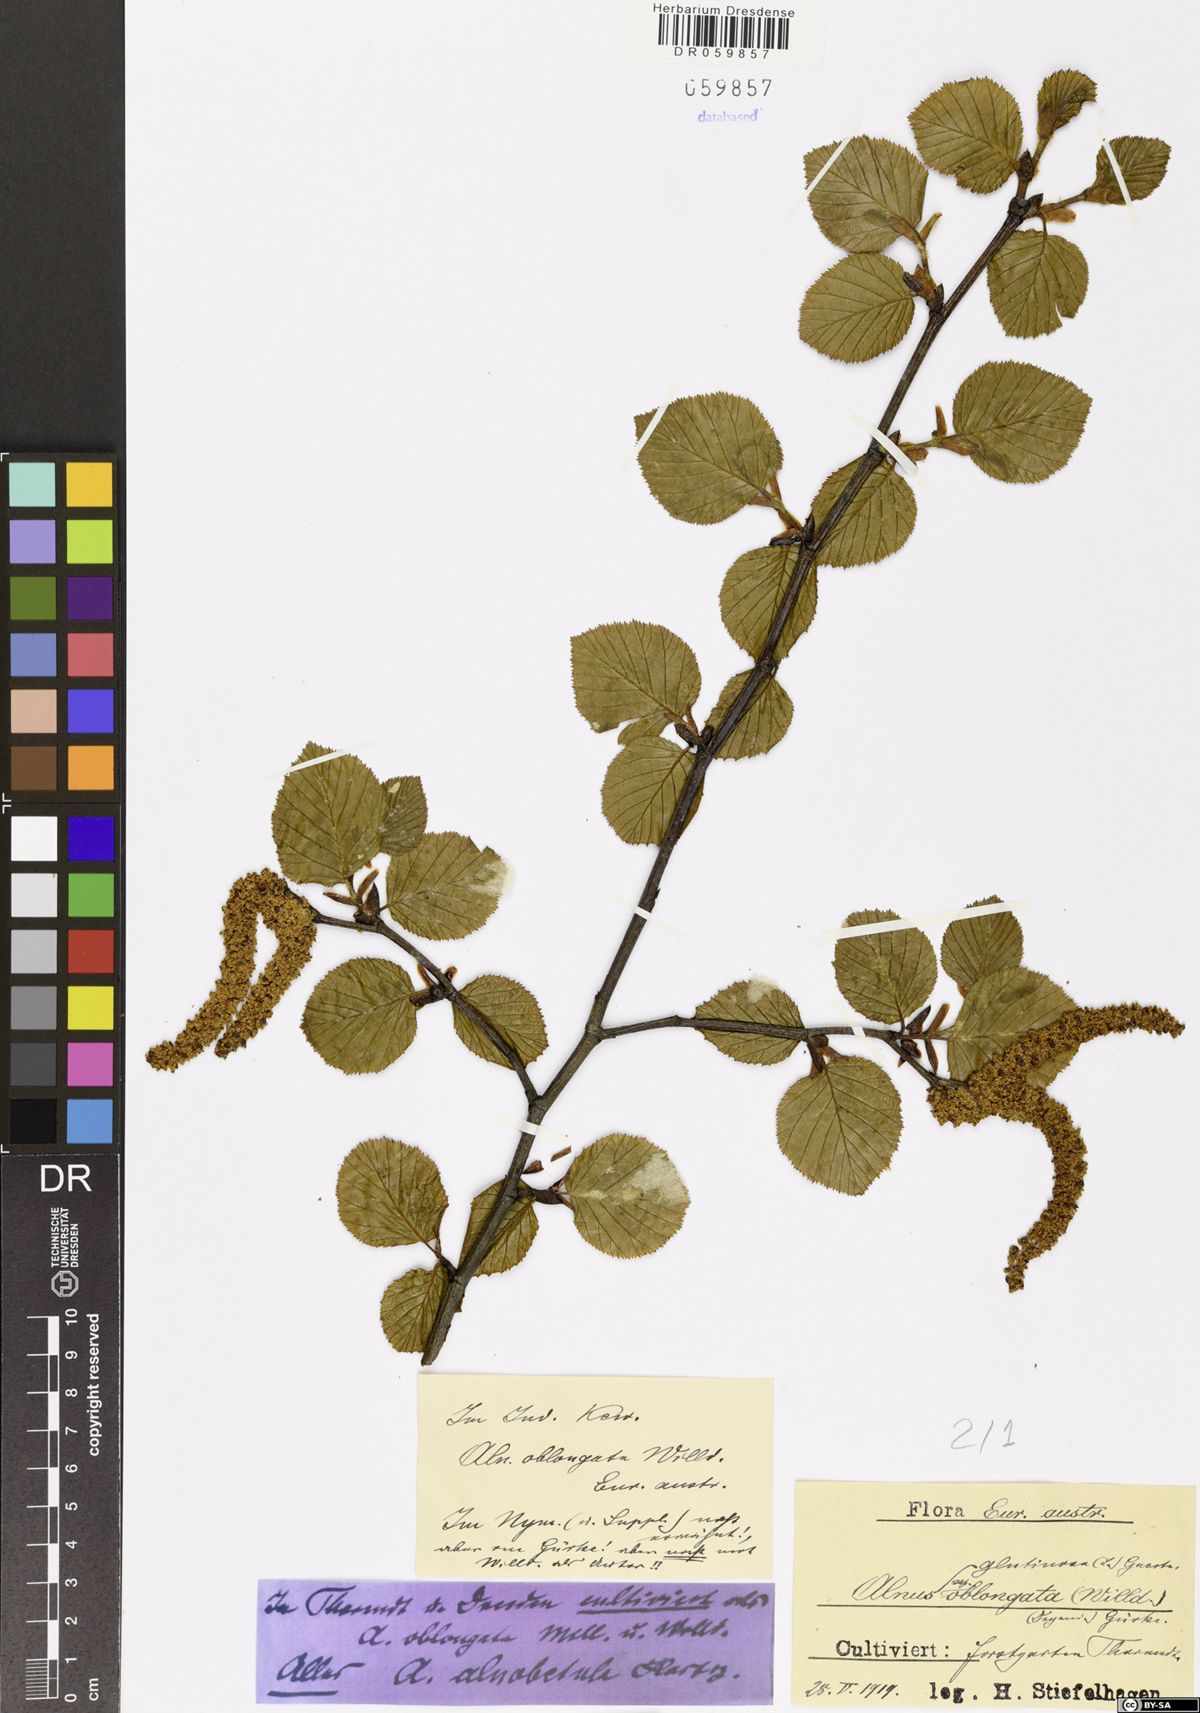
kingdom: Plantae
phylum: Tracheophyta
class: Magnoliopsida
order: Fagales
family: Betulaceae
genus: Alnus
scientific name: Alnus alnobetula
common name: Green alder
